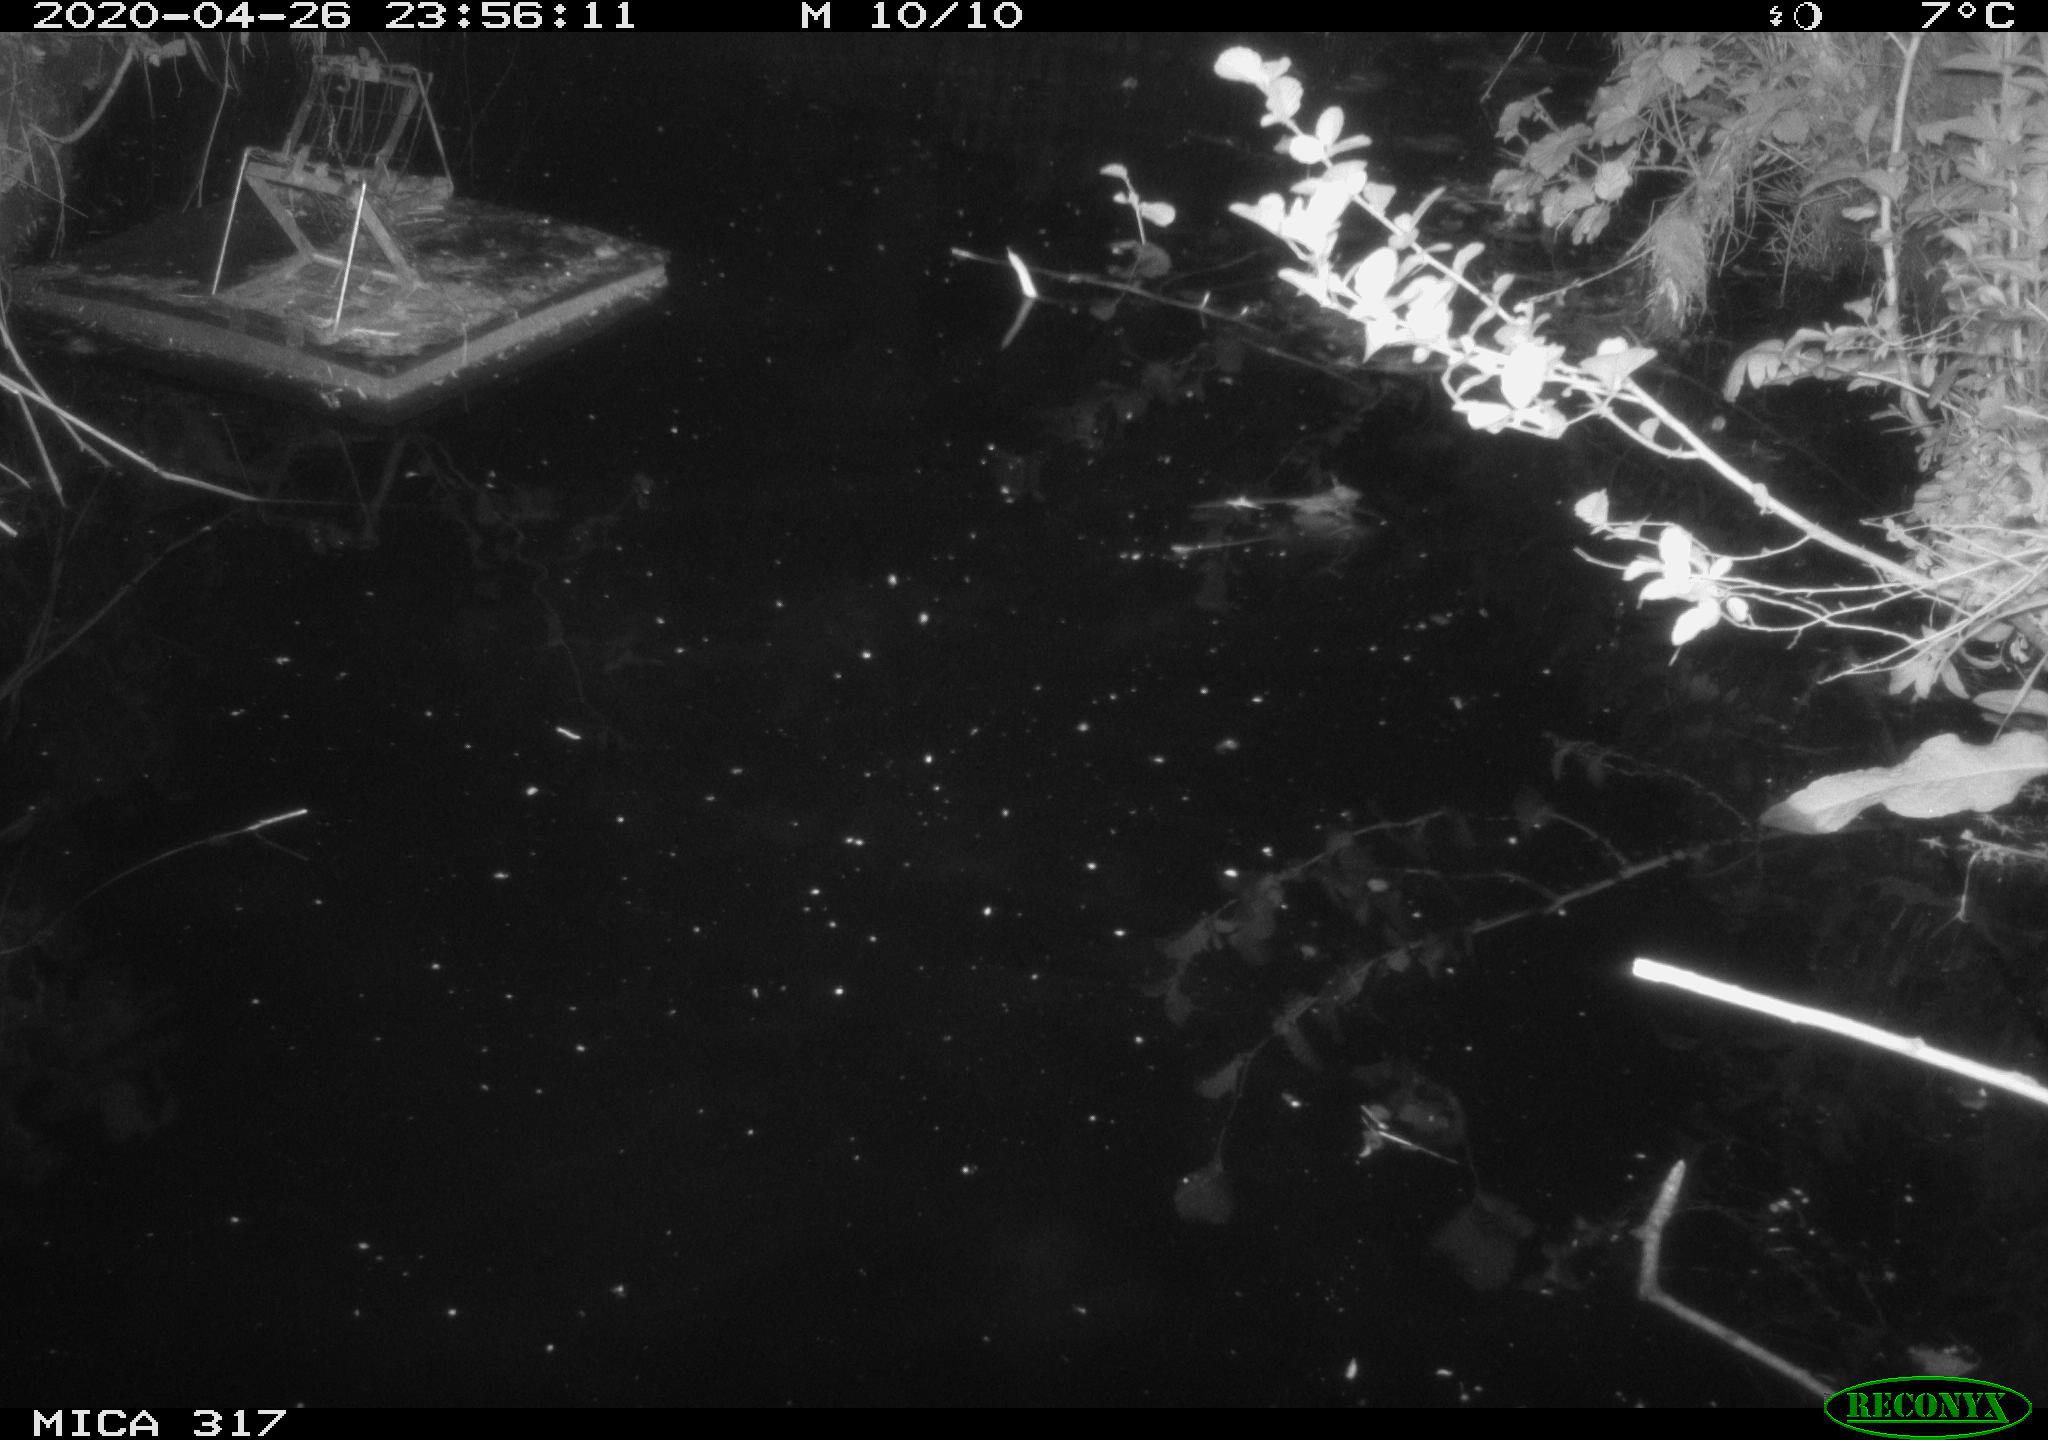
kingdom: Animalia
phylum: Chordata
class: Aves
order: Anseriformes
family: Anatidae
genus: Mareca
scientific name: Mareca strepera
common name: Gadwall
